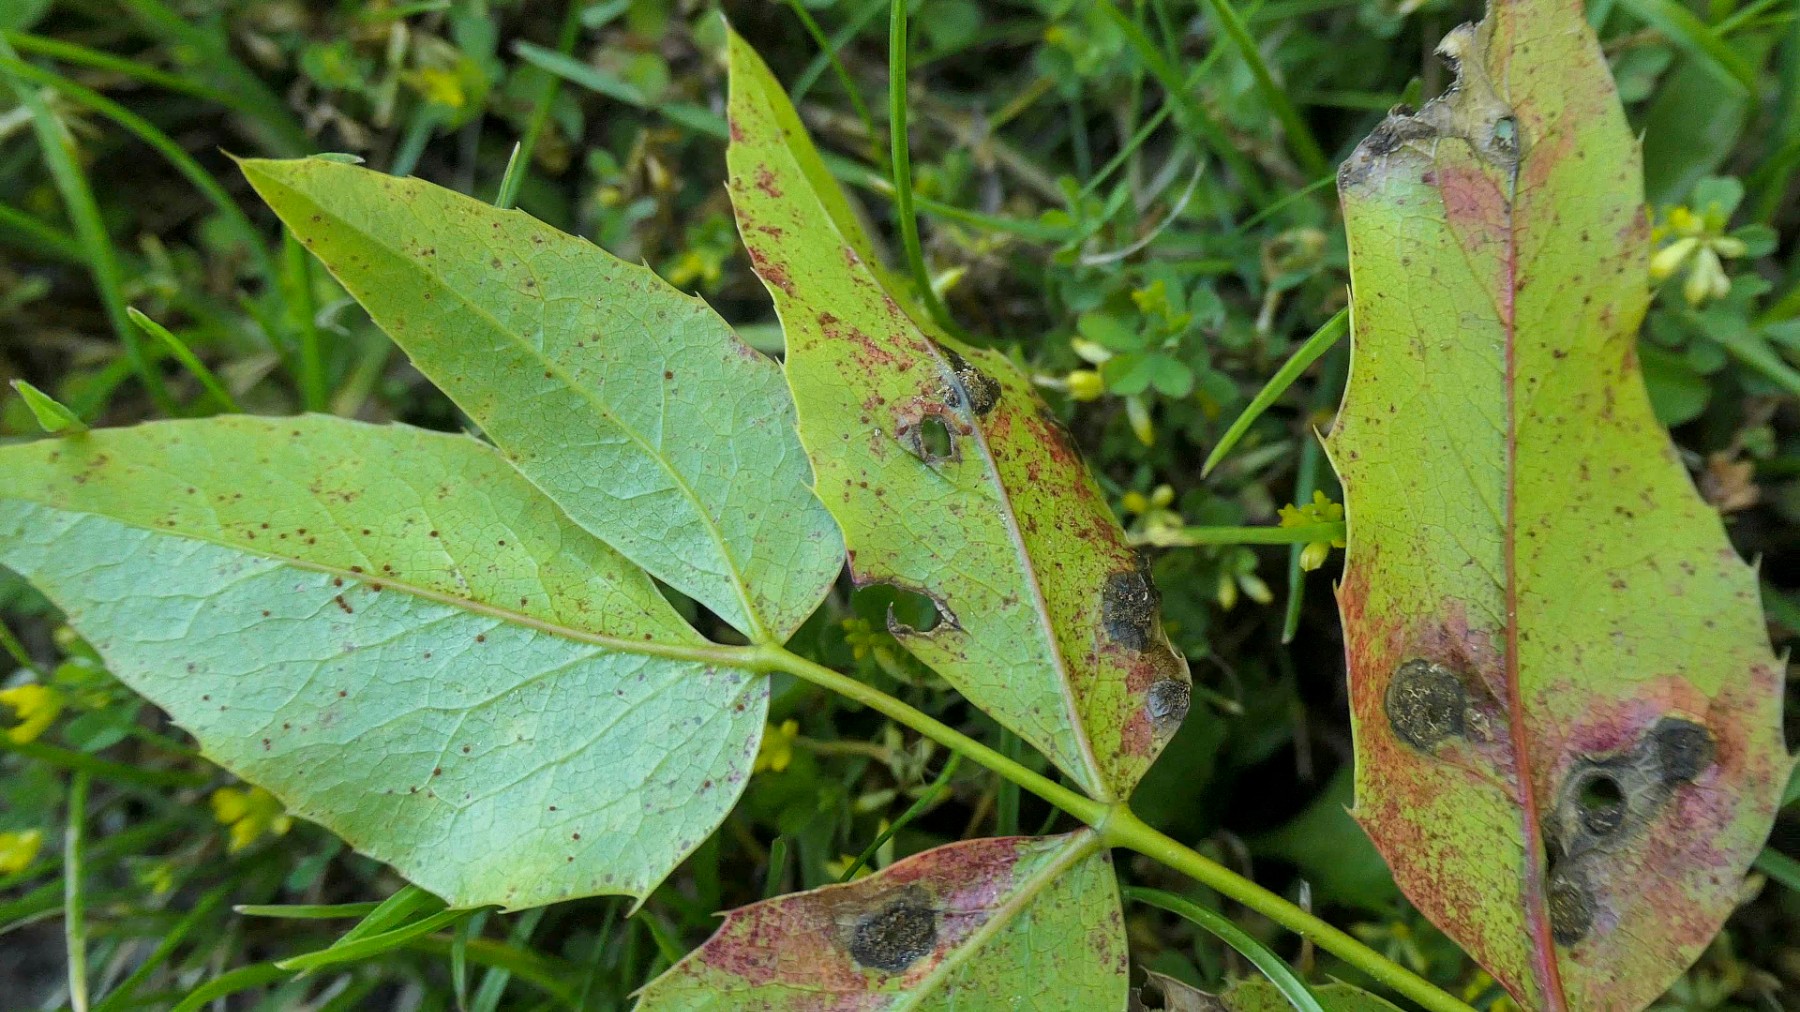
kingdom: Fungi
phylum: Basidiomycota
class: Pucciniomycetes
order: Pucciniales
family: Pucciniaceae
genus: Cumminsiella
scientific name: Cumminsiella mirabilissima
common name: mahonierust
